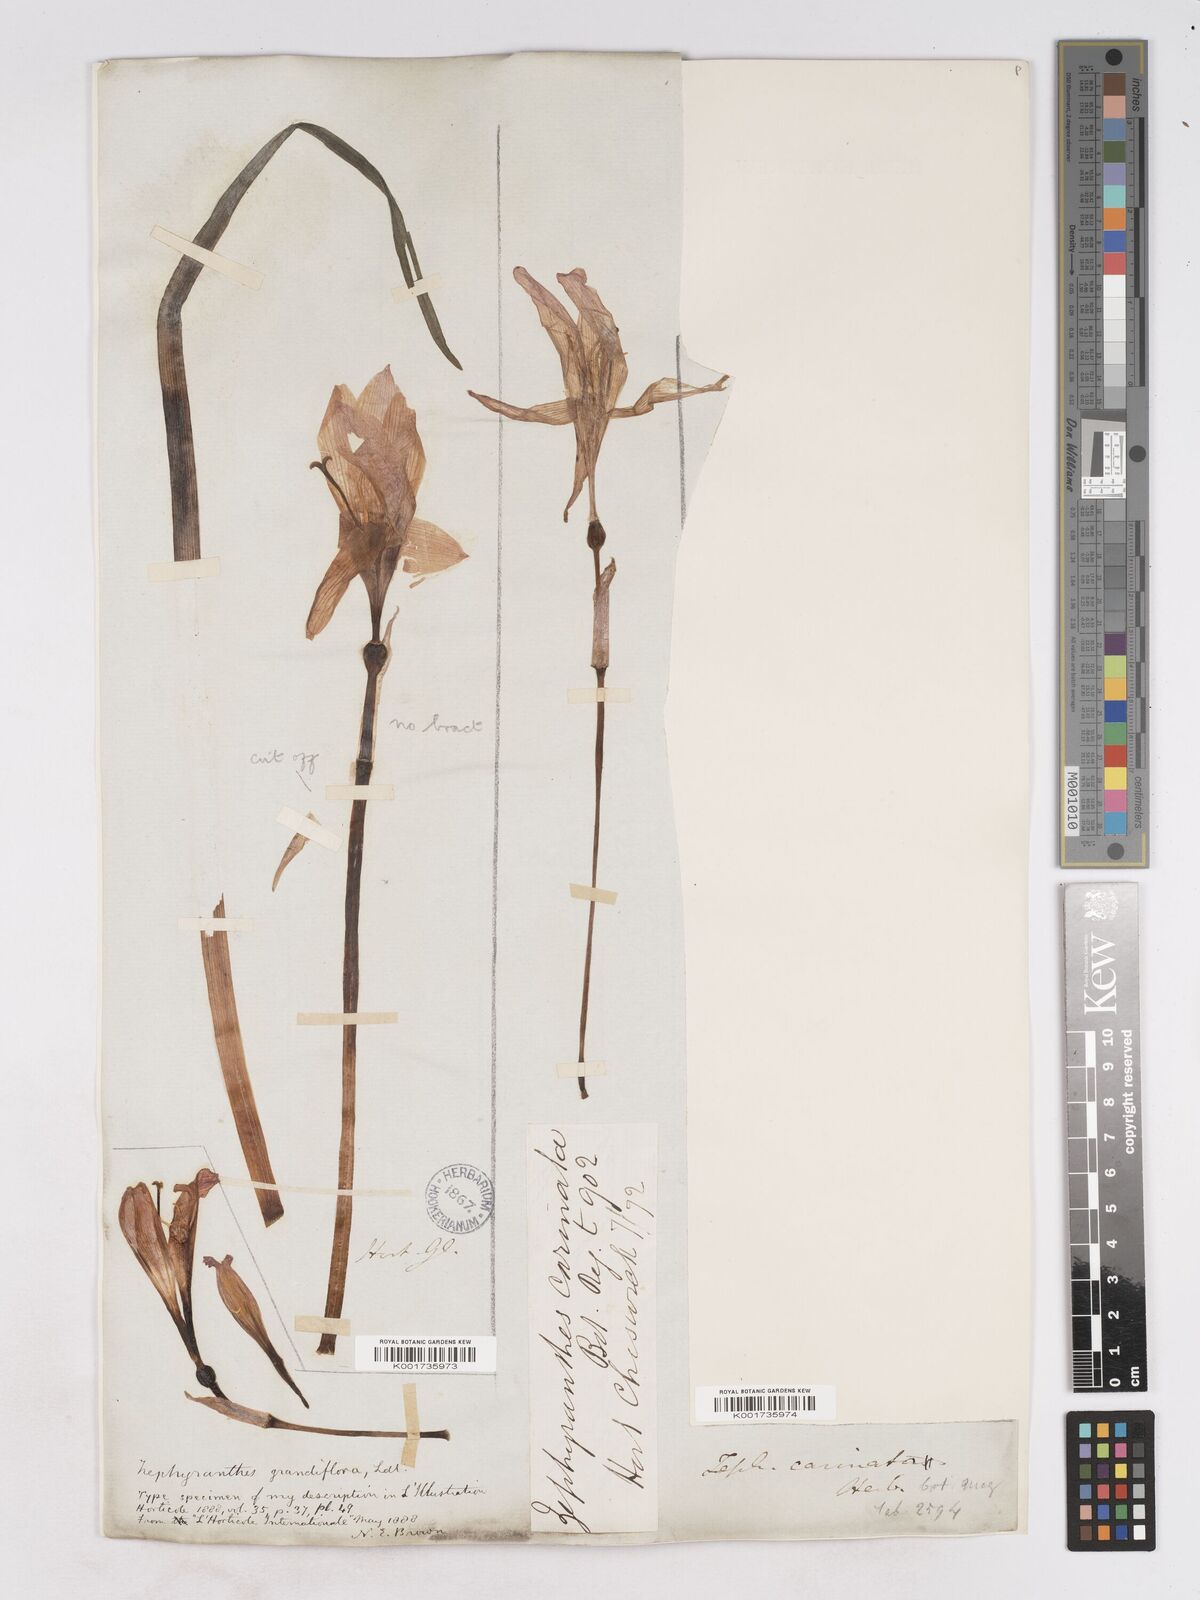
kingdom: Plantae
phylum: Tracheophyta
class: Liliopsida
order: Asparagales
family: Amaryllidaceae
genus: Zephyranthes
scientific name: Zephyranthes minuta
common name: Pink rain lily
